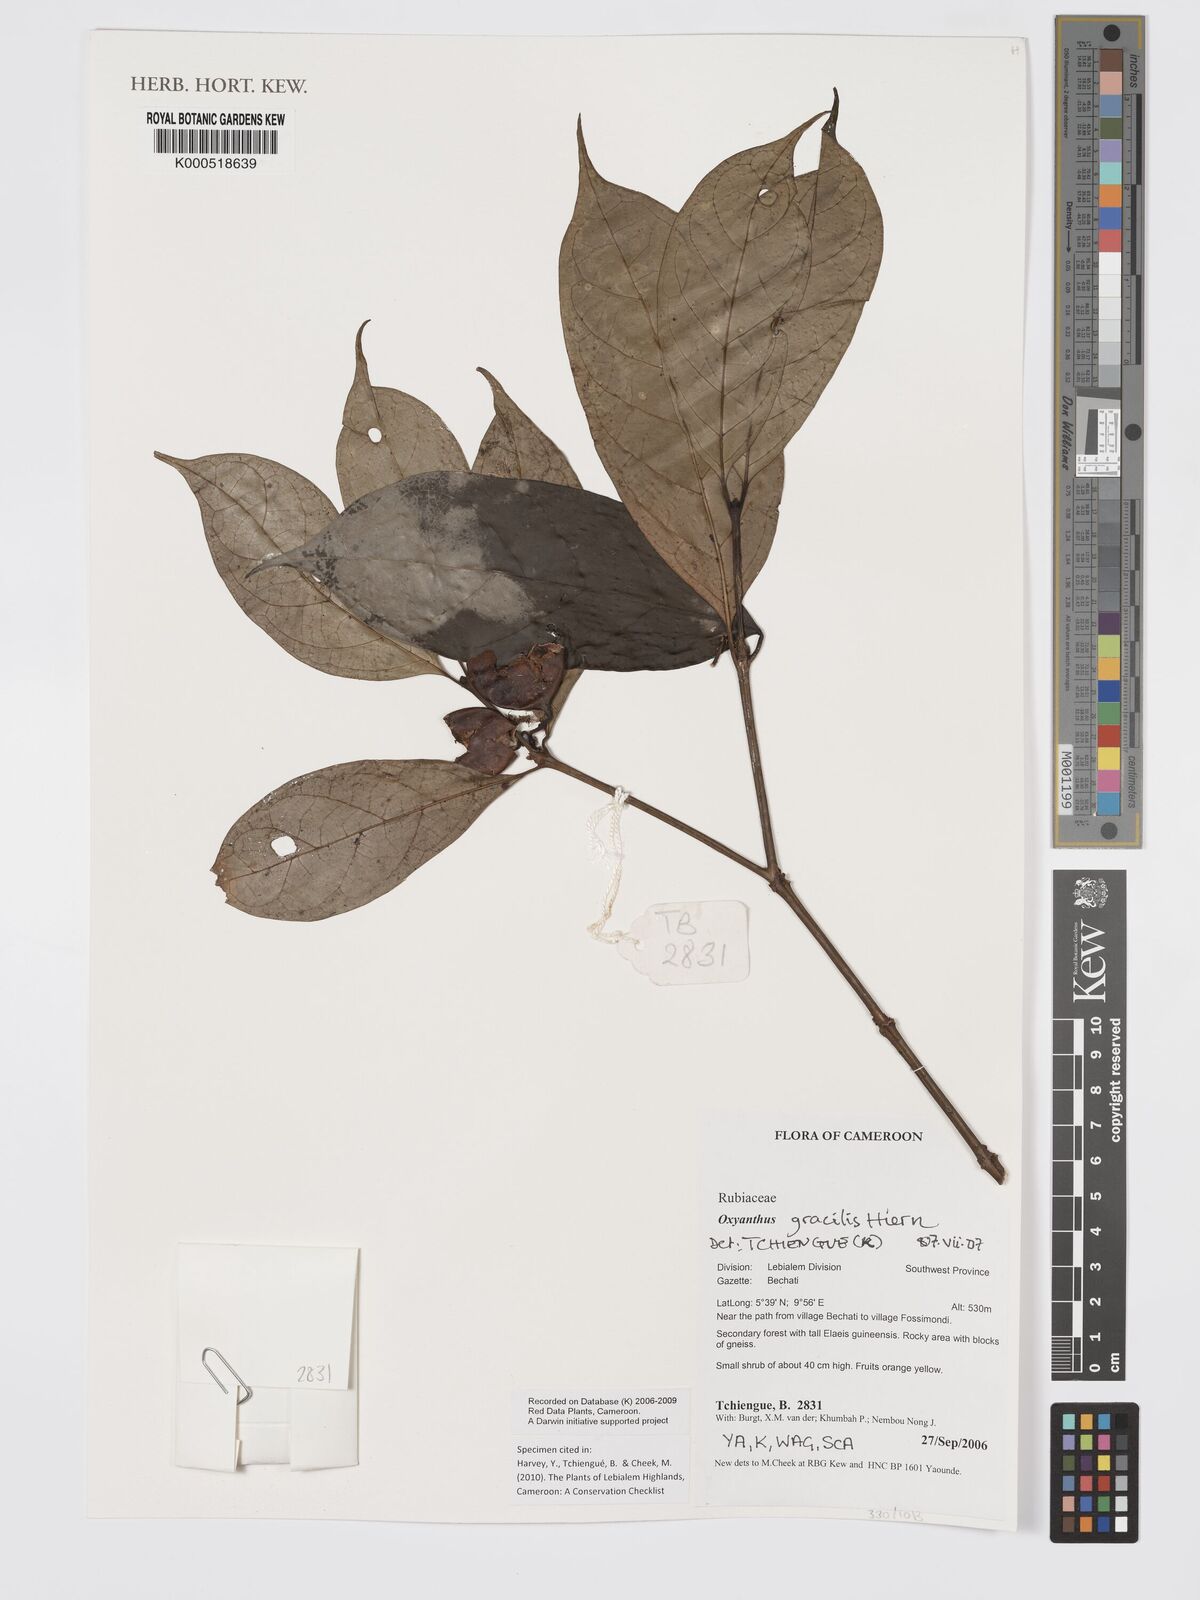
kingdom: Plantae
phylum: Tracheophyta
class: Magnoliopsida
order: Gentianales
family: Rubiaceae
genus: Oxyanthus
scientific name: Oxyanthus gracilis
